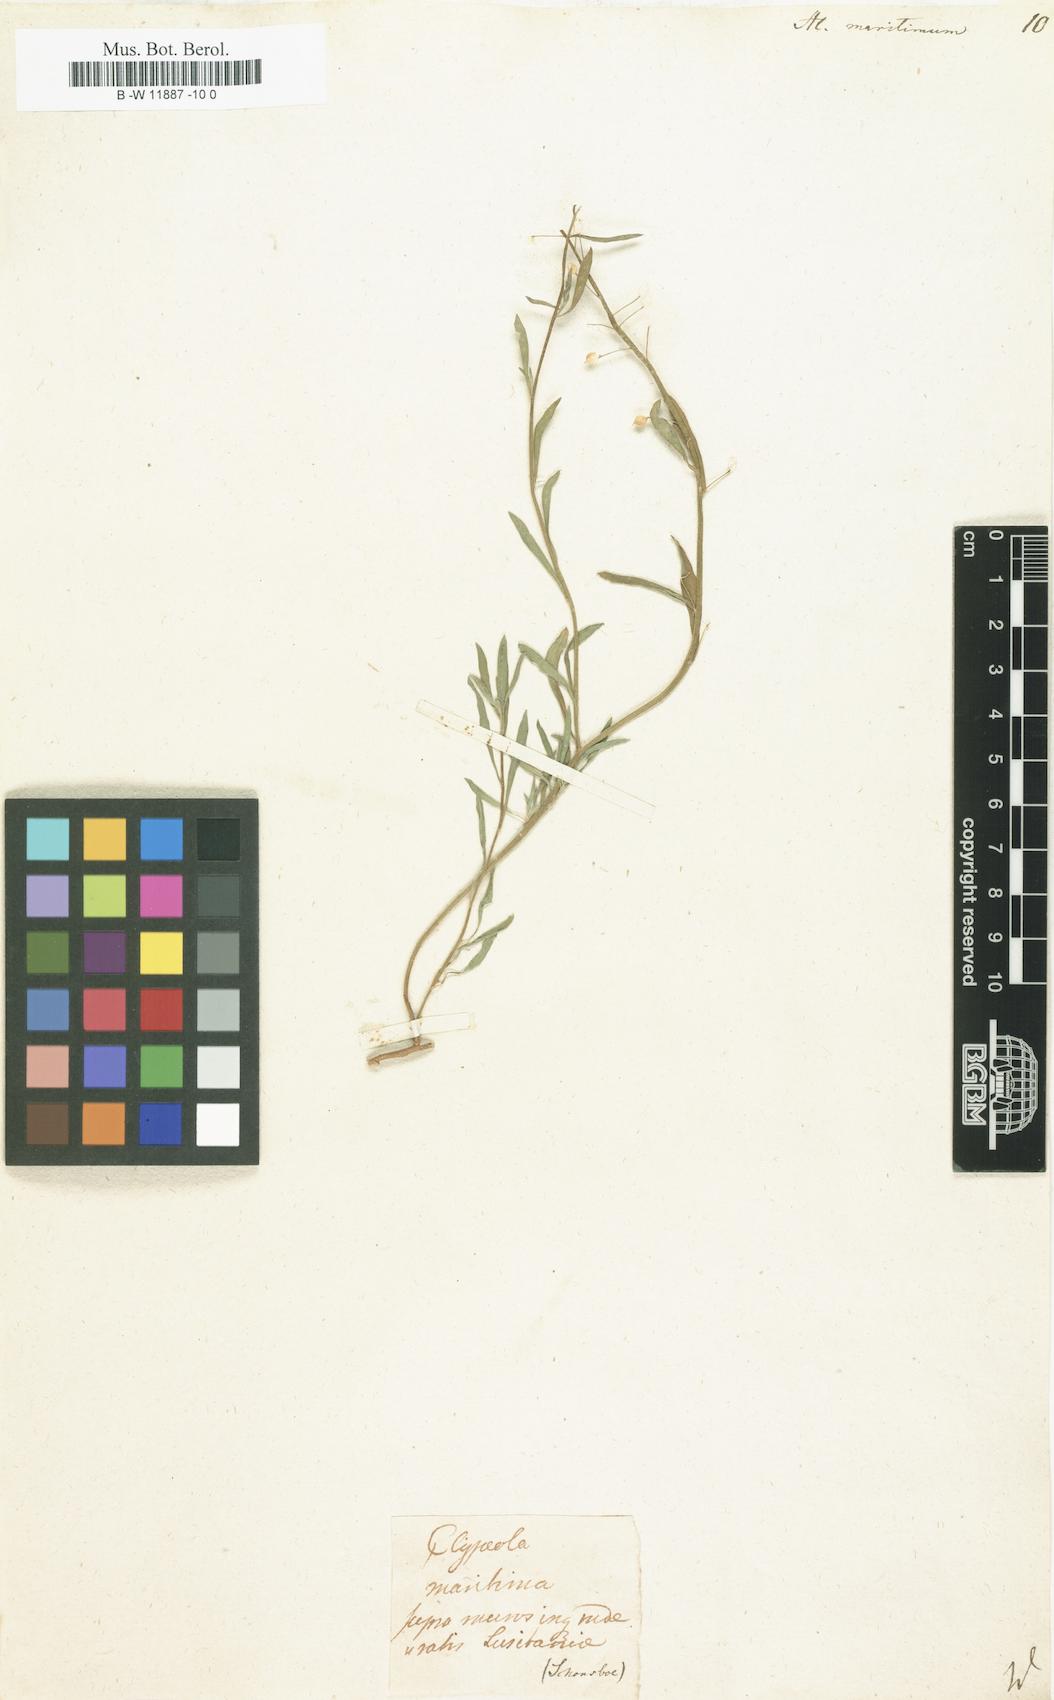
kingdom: Plantae
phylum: Tracheophyta
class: Magnoliopsida
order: Brassicales
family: Brassicaceae
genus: Lobularia
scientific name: Lobularia maritima
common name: Sweet alison
